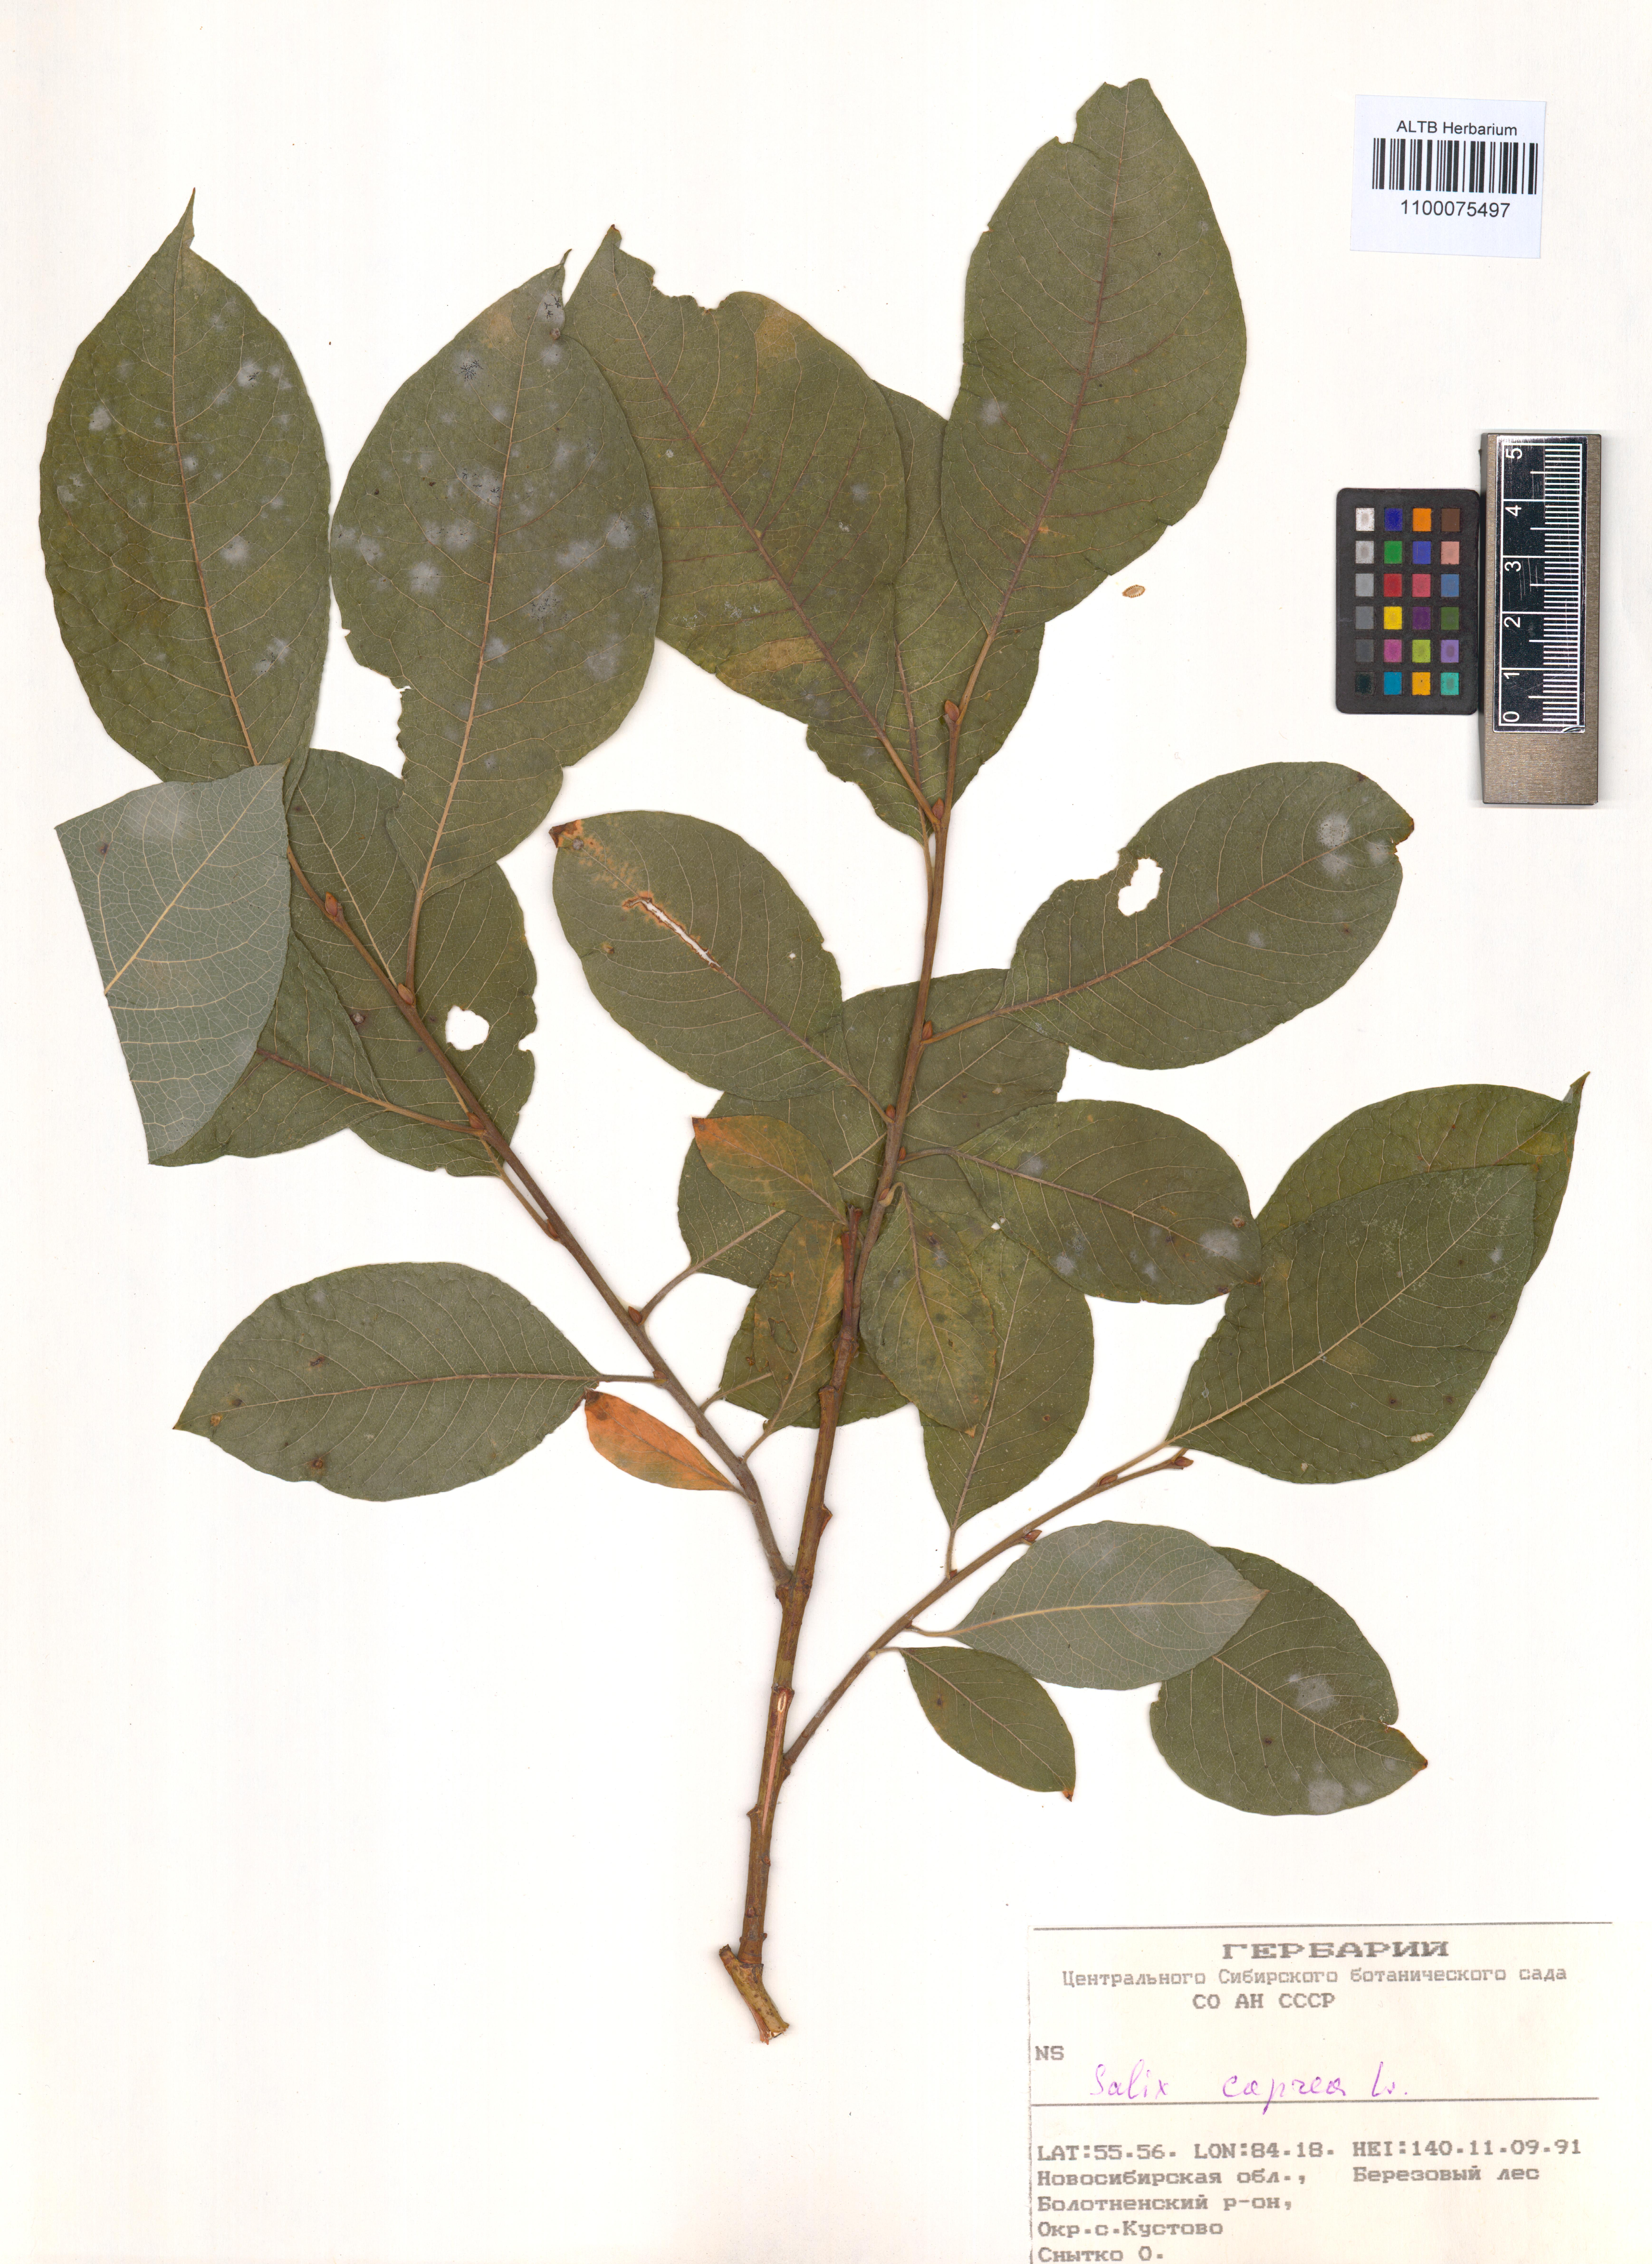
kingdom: Plantae
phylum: Tracheophyta
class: Magnoliopsida
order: Malpighiales
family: Salicaceae
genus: Salix
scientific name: Salix caprea
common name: Goat willow
